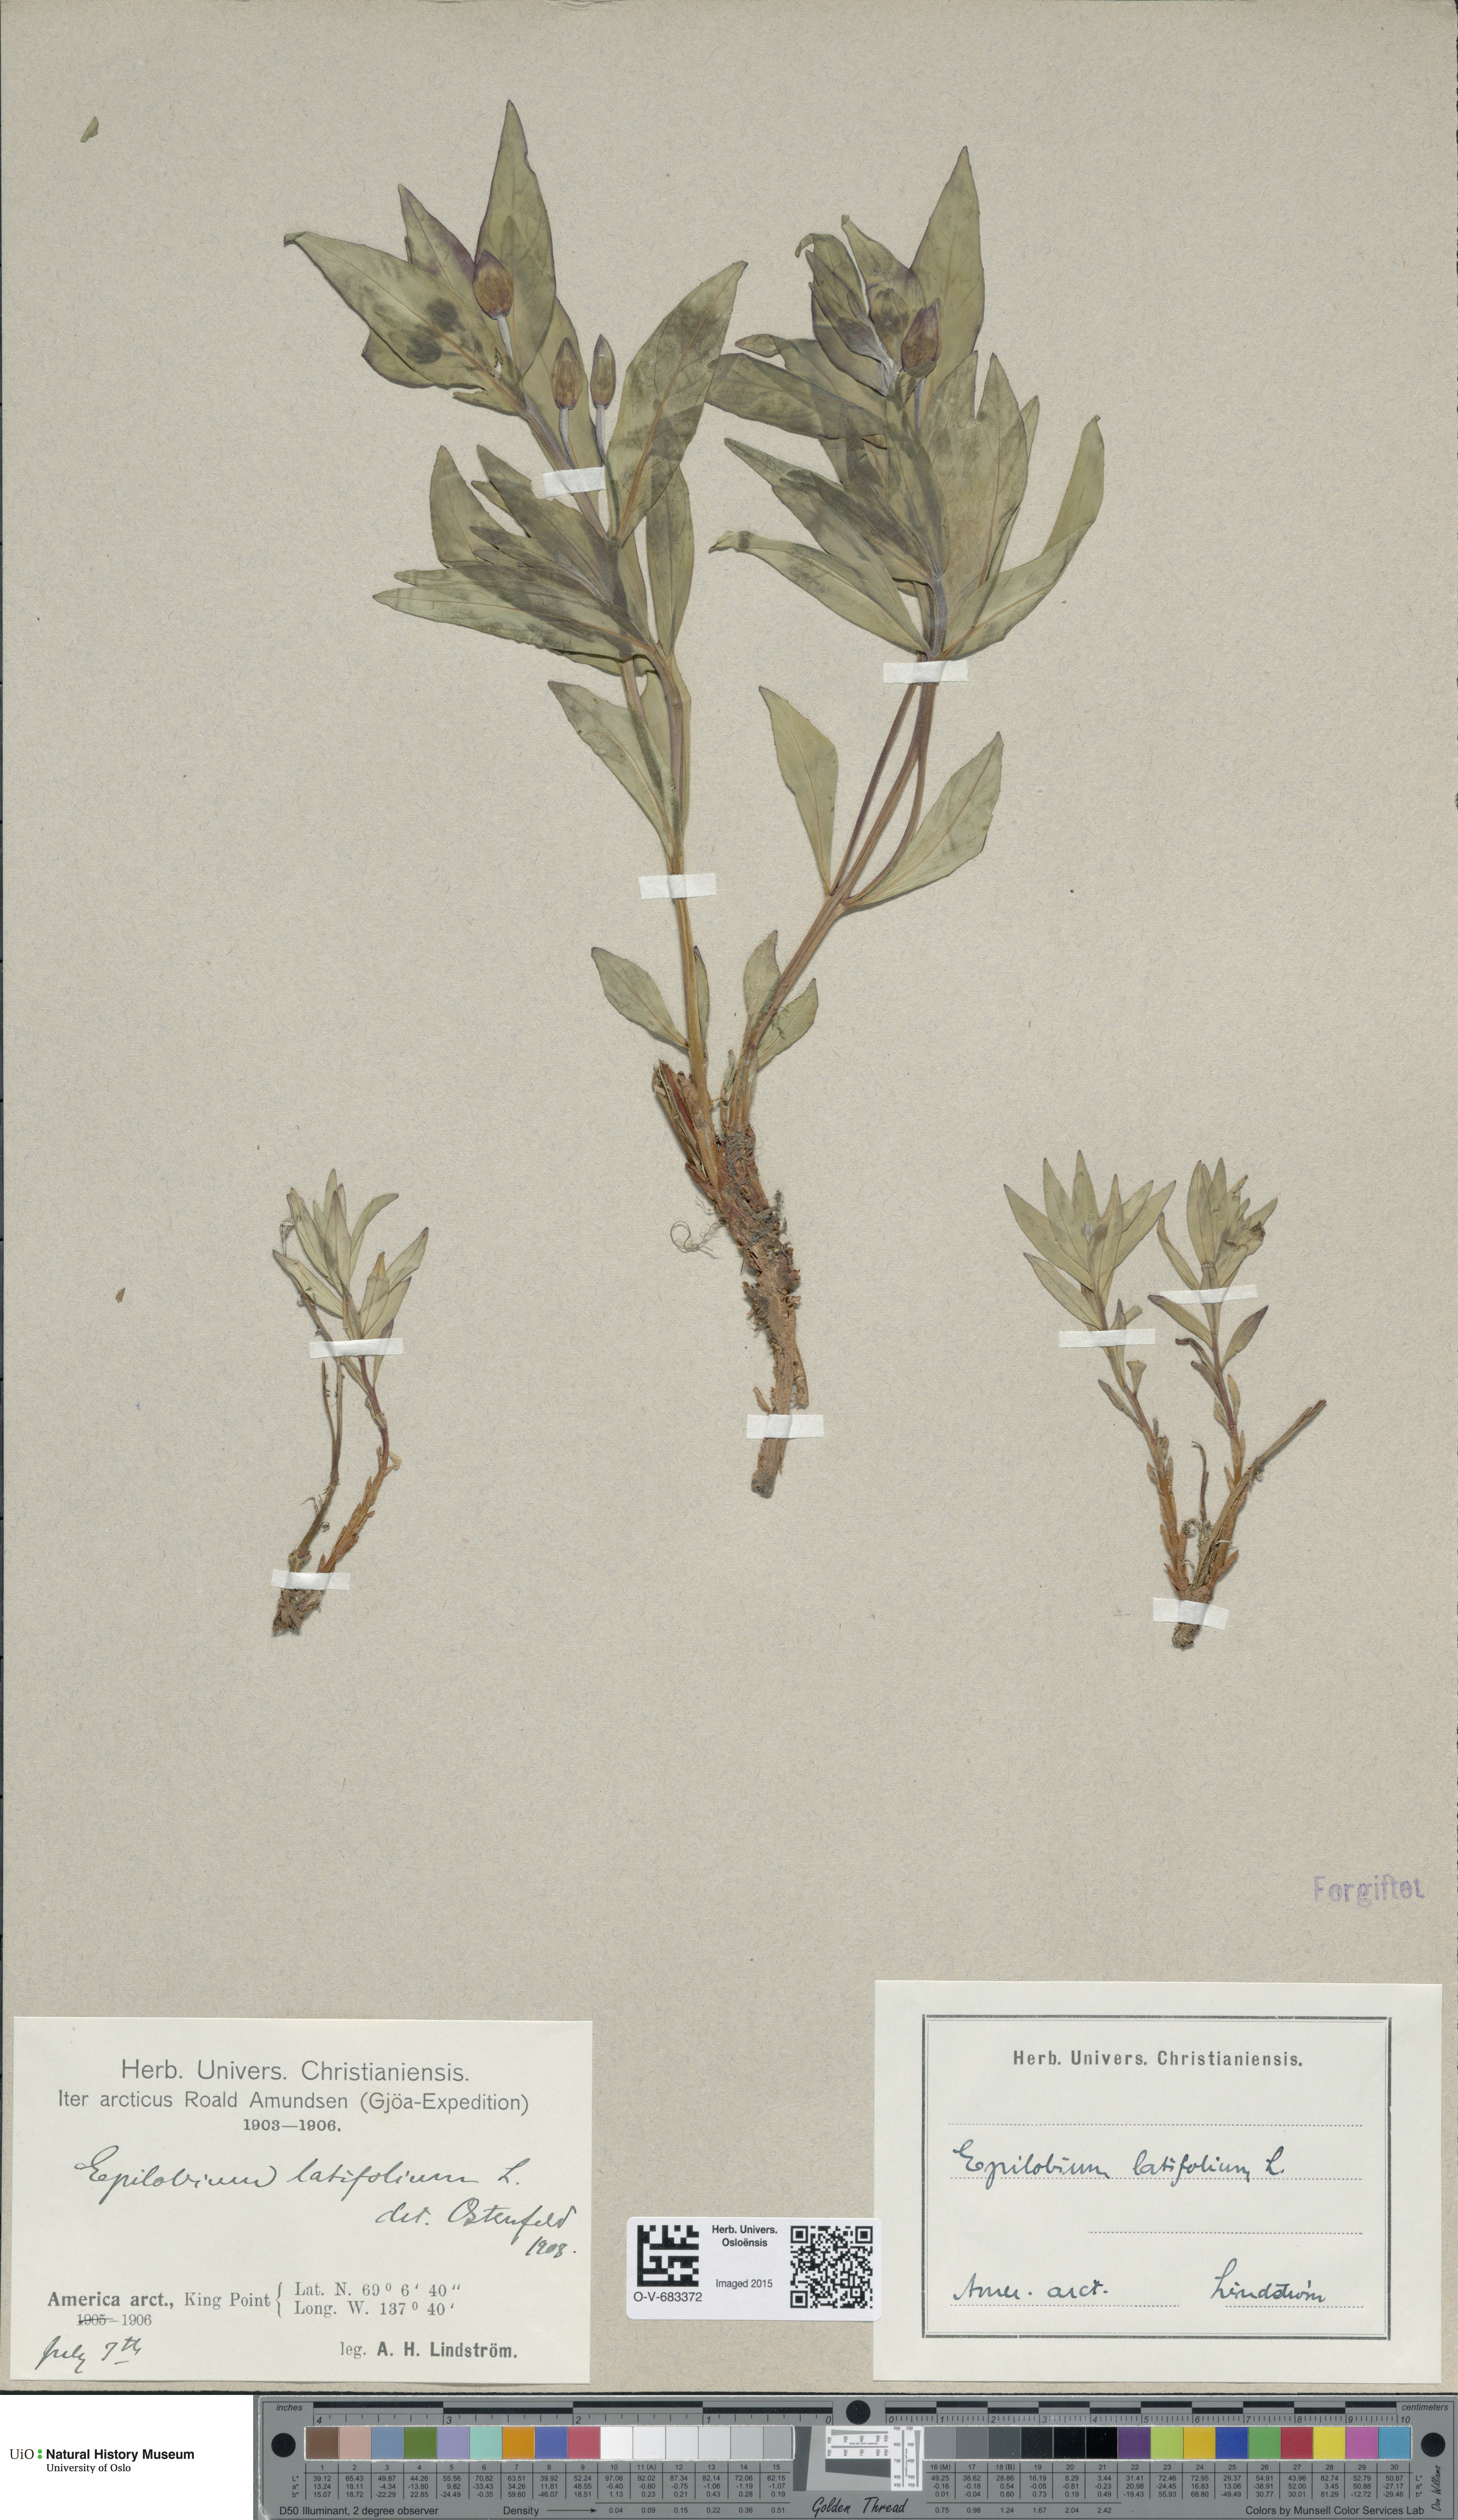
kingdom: Plantae
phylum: Tracheophyta
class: Magnoliopsida
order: Myrtales
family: Onagraceae
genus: Chamaenerion
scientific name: Chamaenerion latifolium
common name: Dwarf fireweed
